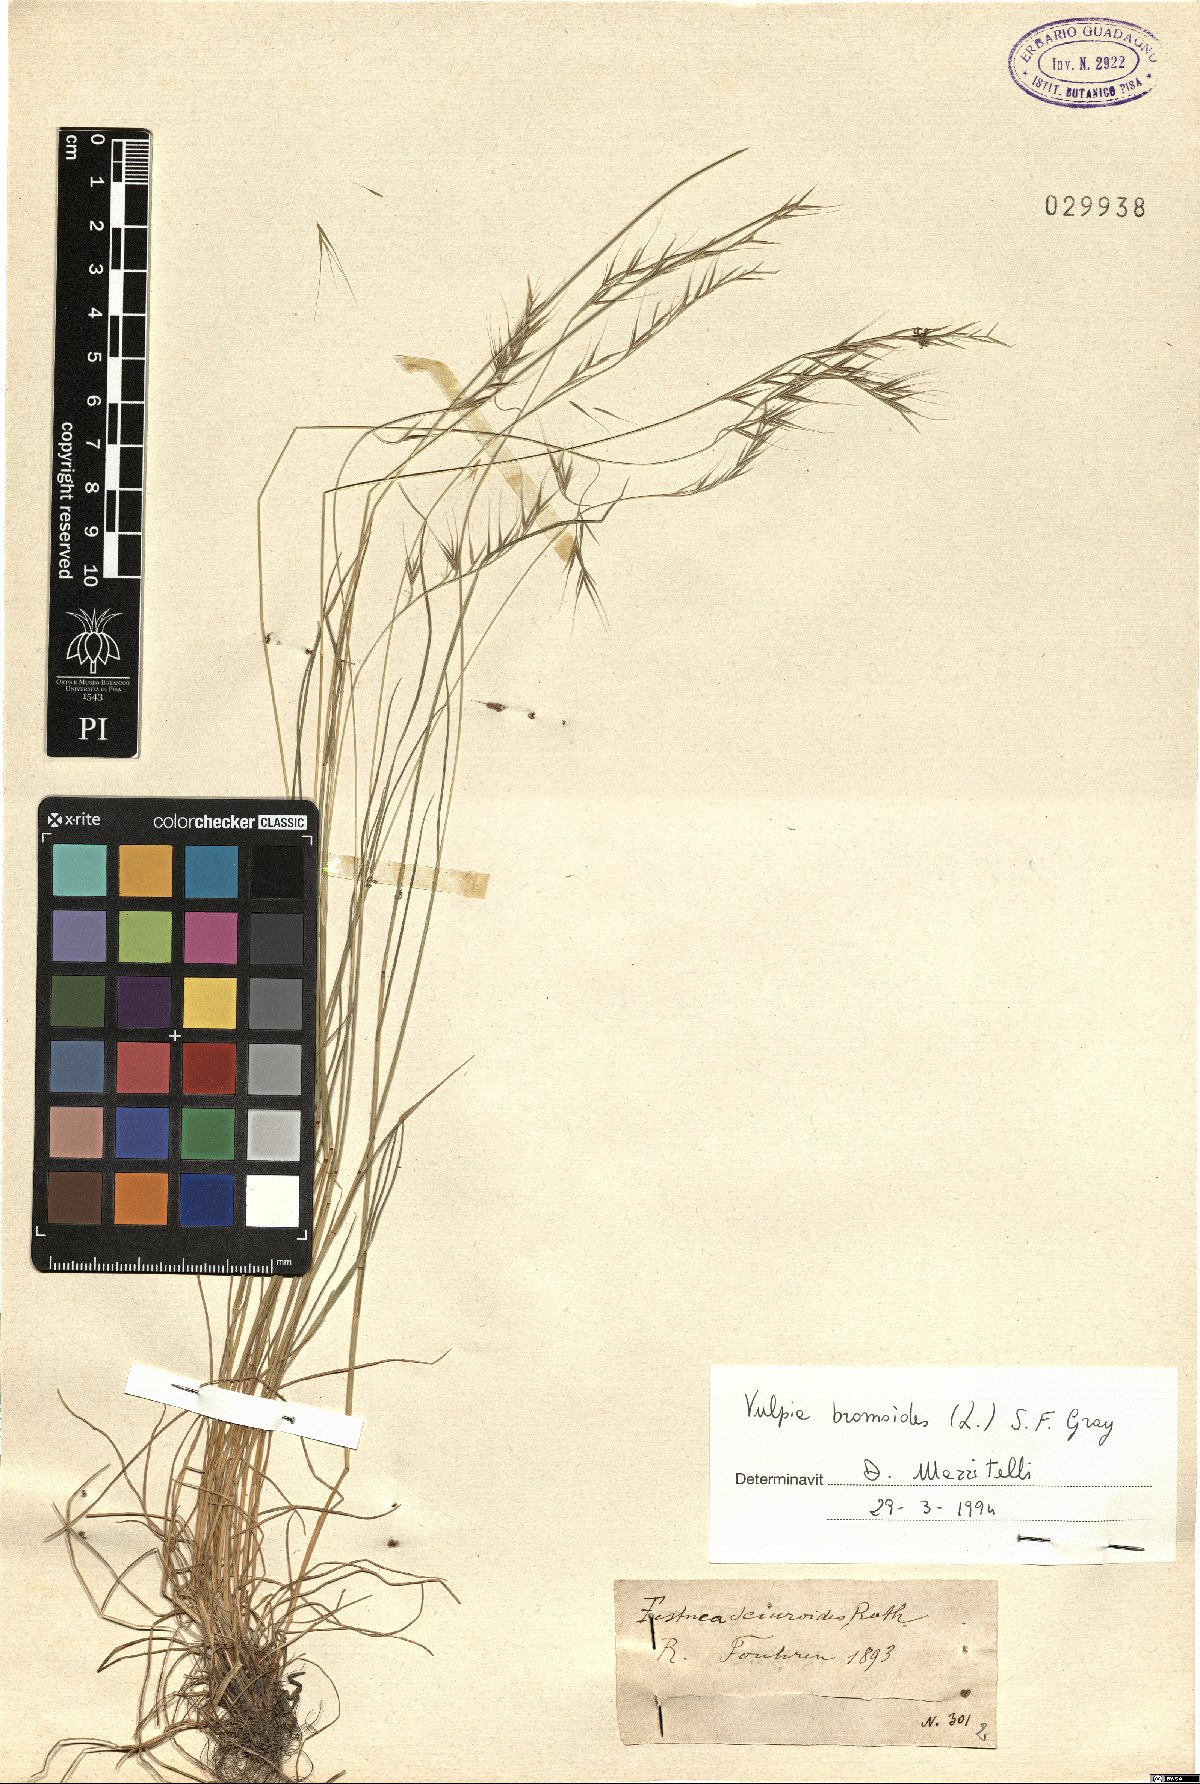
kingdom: Plantae
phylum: Tracheophyta
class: Liliopsida
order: Poales
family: Poaceae
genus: Festuca
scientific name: Festuca bromoides
